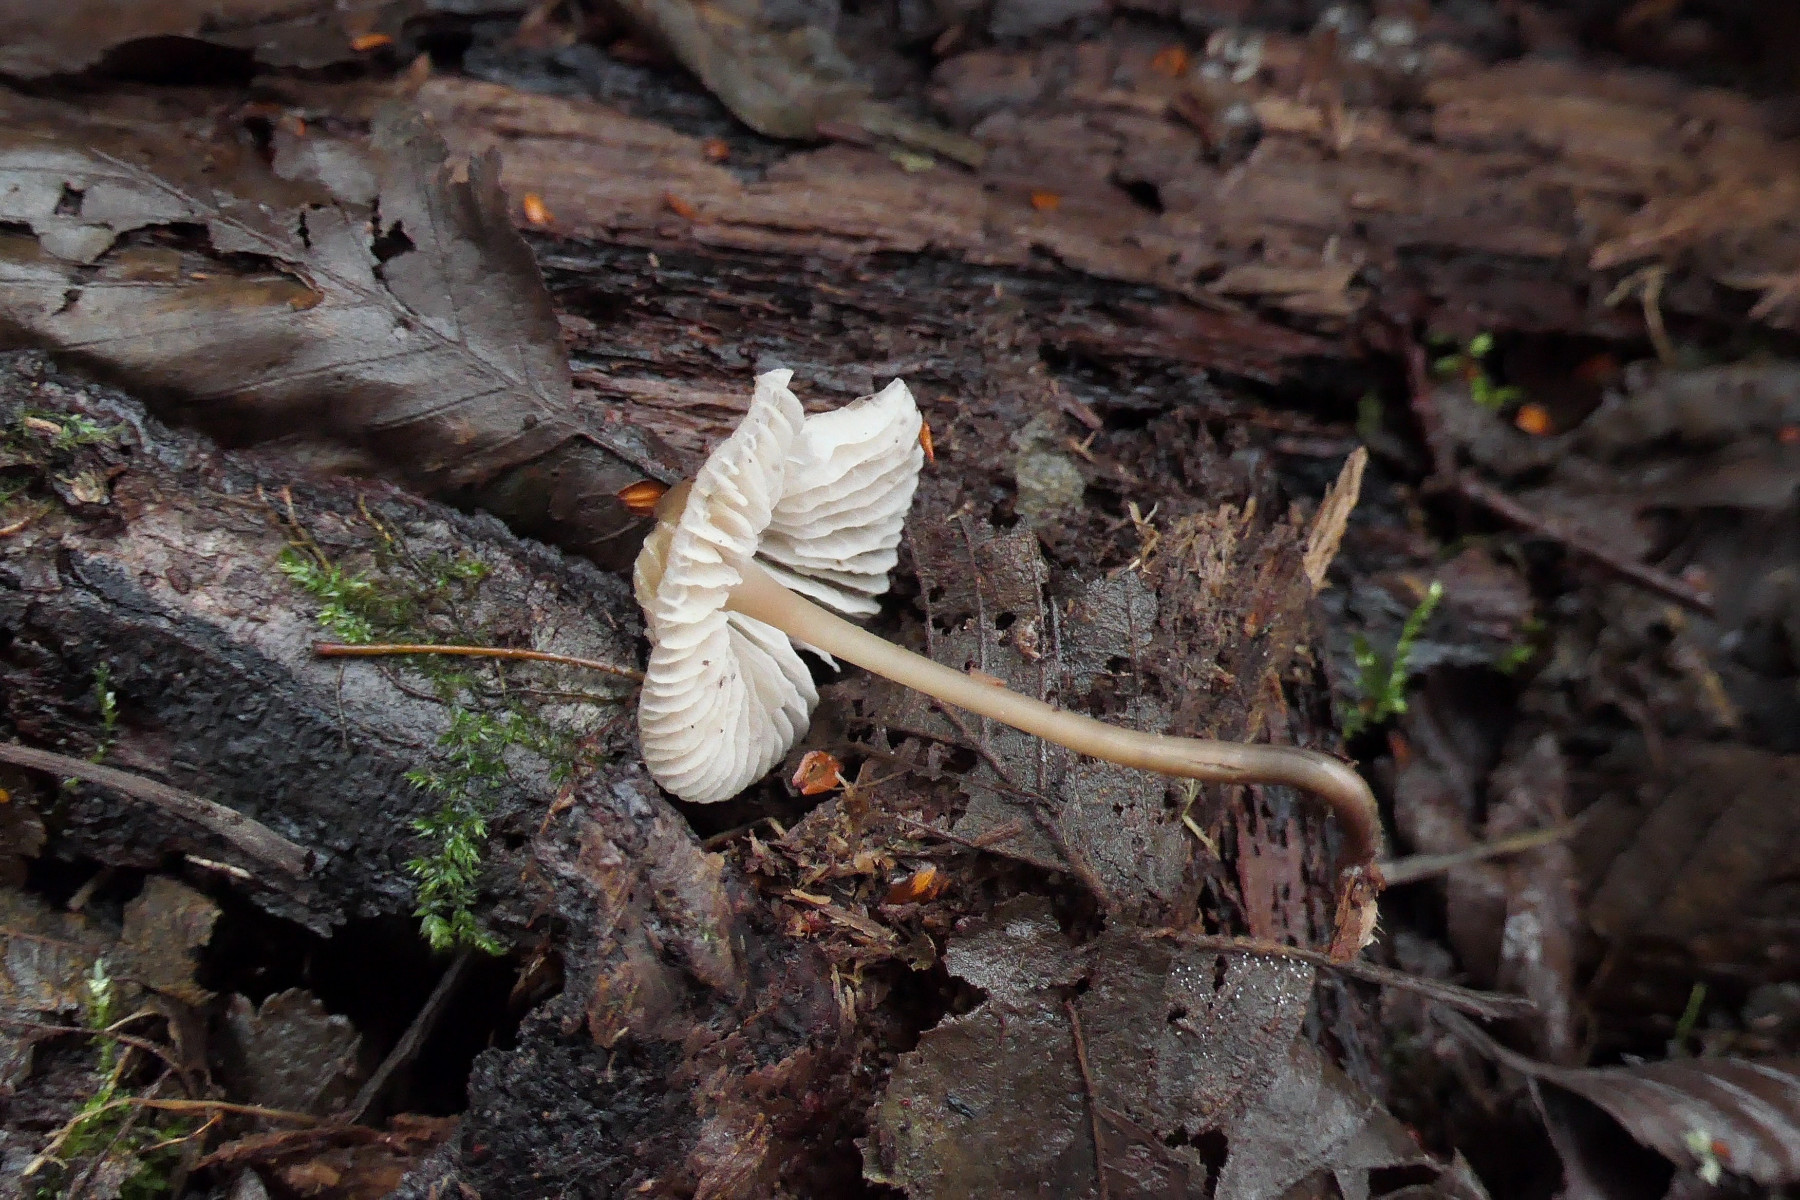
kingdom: Fungi
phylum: Basidiomycota
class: Agaricomycetes
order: Agaricales
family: Mycenaceae
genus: Mycena
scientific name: Mycena galericulata
